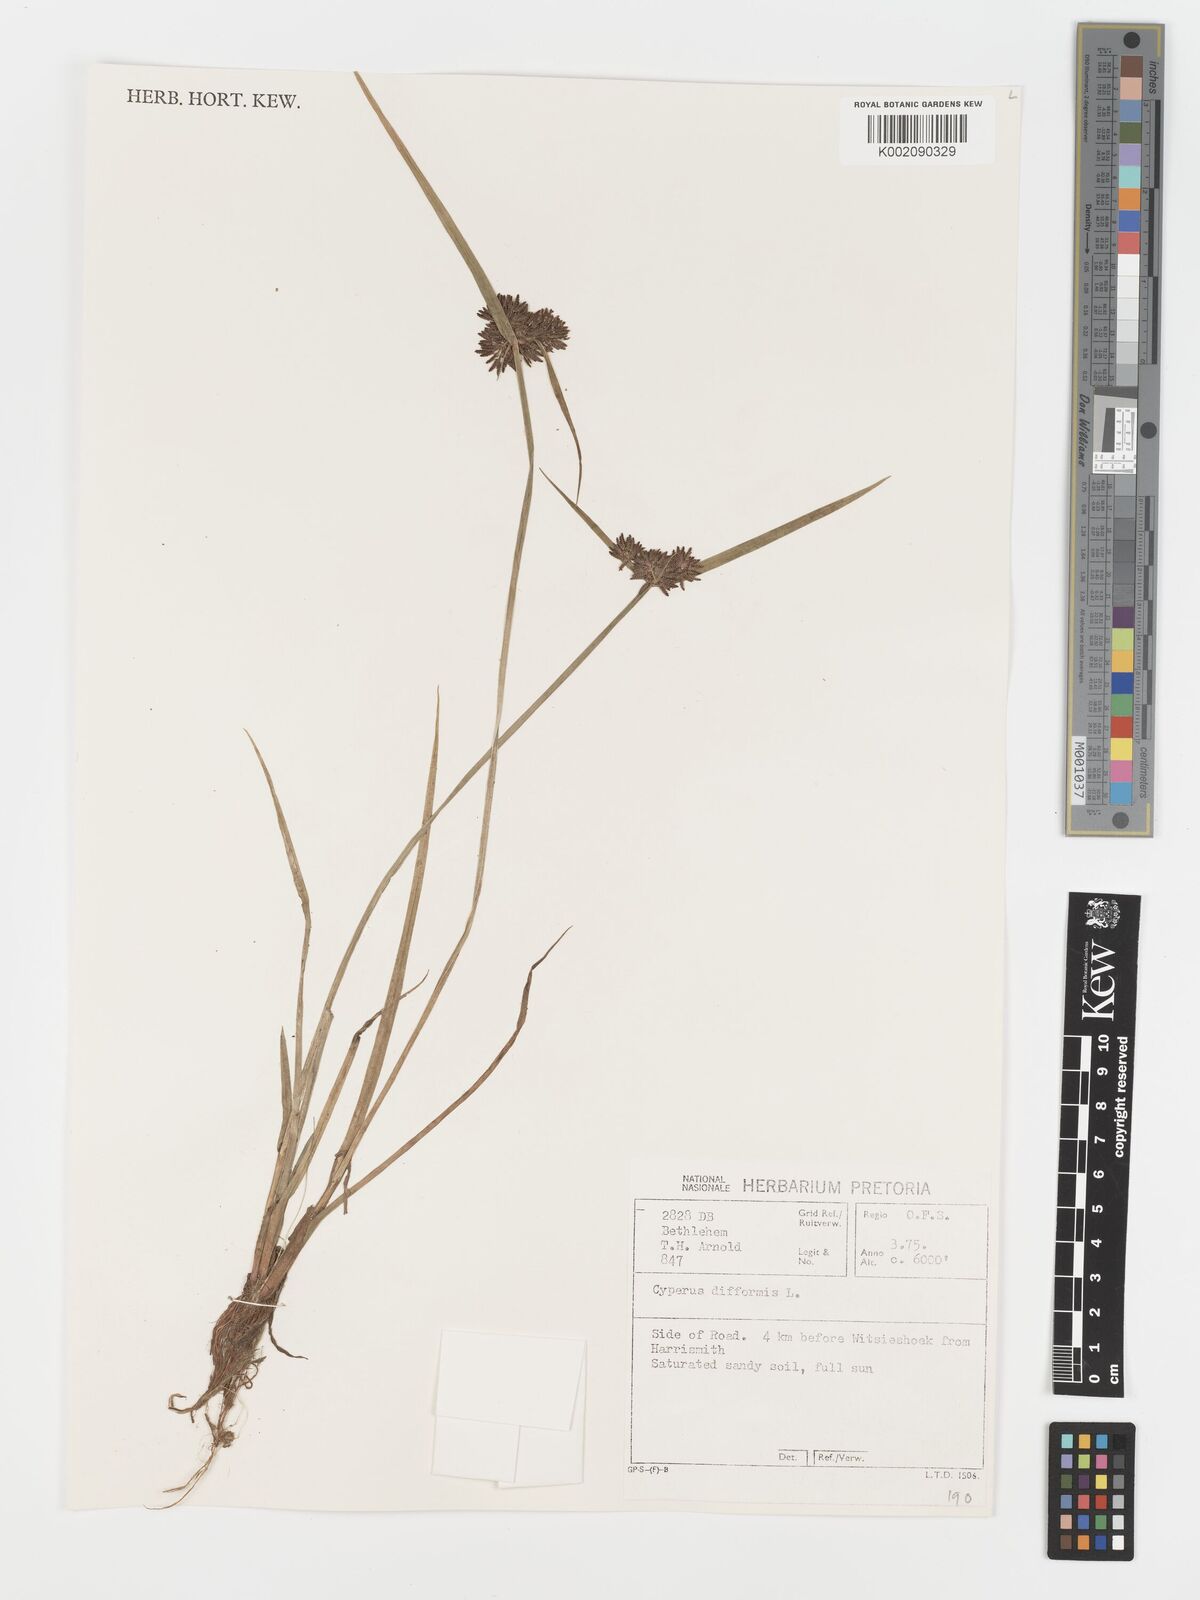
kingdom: Plantae
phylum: Tracheophyta
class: Liliopsida
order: Poales
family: Cyperaceae
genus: Cyperus
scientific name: Cyperus difformis
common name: Variable flatsedge
